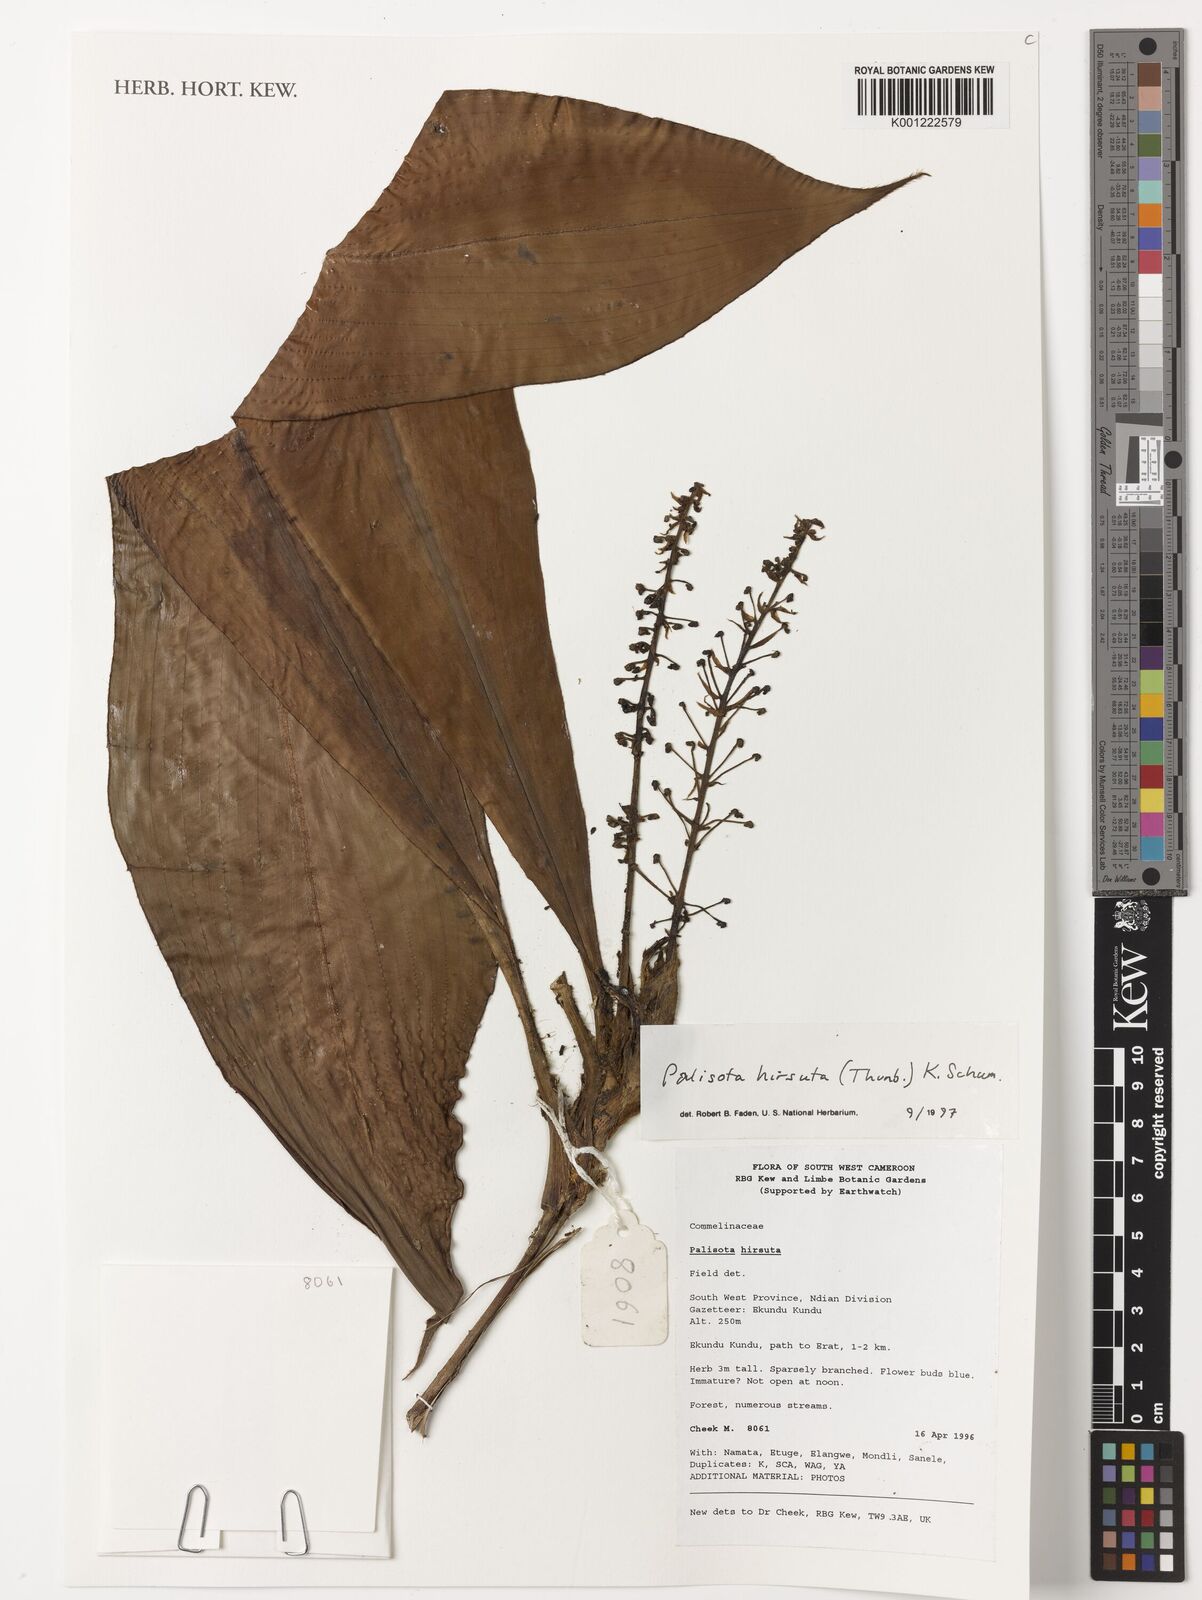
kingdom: Plantae
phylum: Tracheophyta
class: Liliopsida
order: Commelinales
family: Commelinaceae
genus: Palisota
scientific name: Palisota hirsuta
